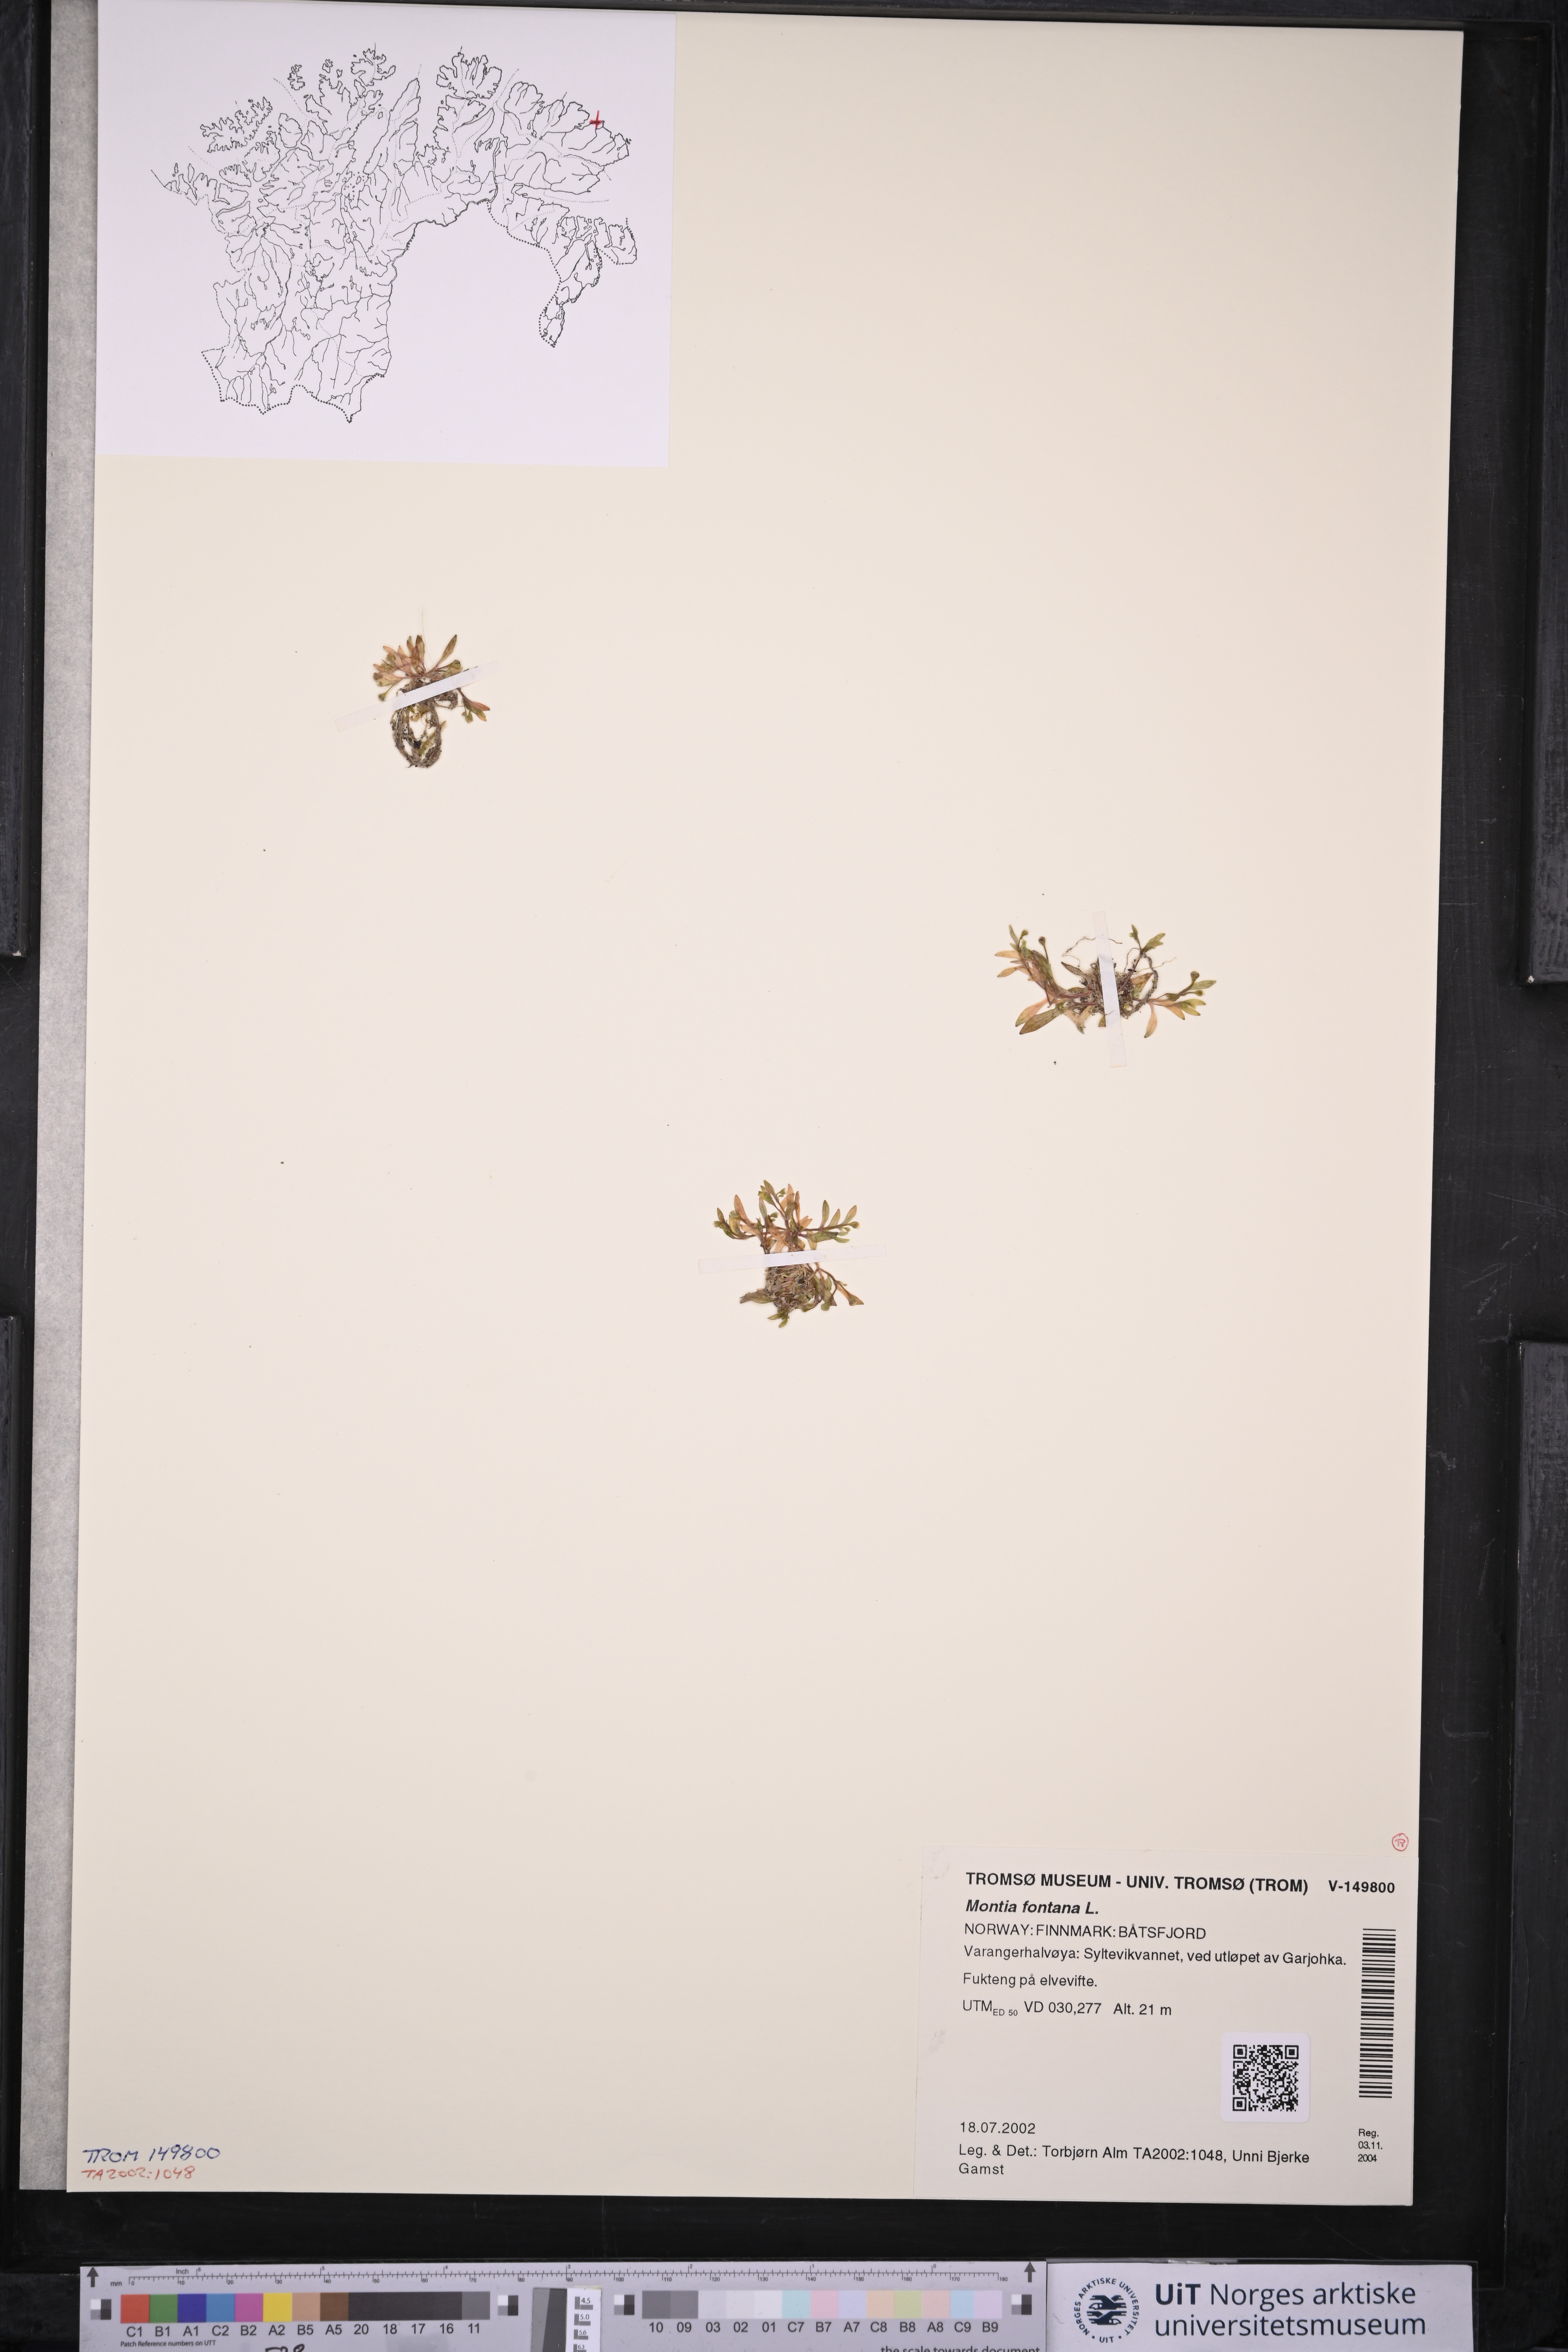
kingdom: Plantae
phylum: Tracheophyta
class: Magnoliopsida
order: Caryophyllales
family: Montiaceae
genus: Montia
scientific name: Montia fontana
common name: Blinks
